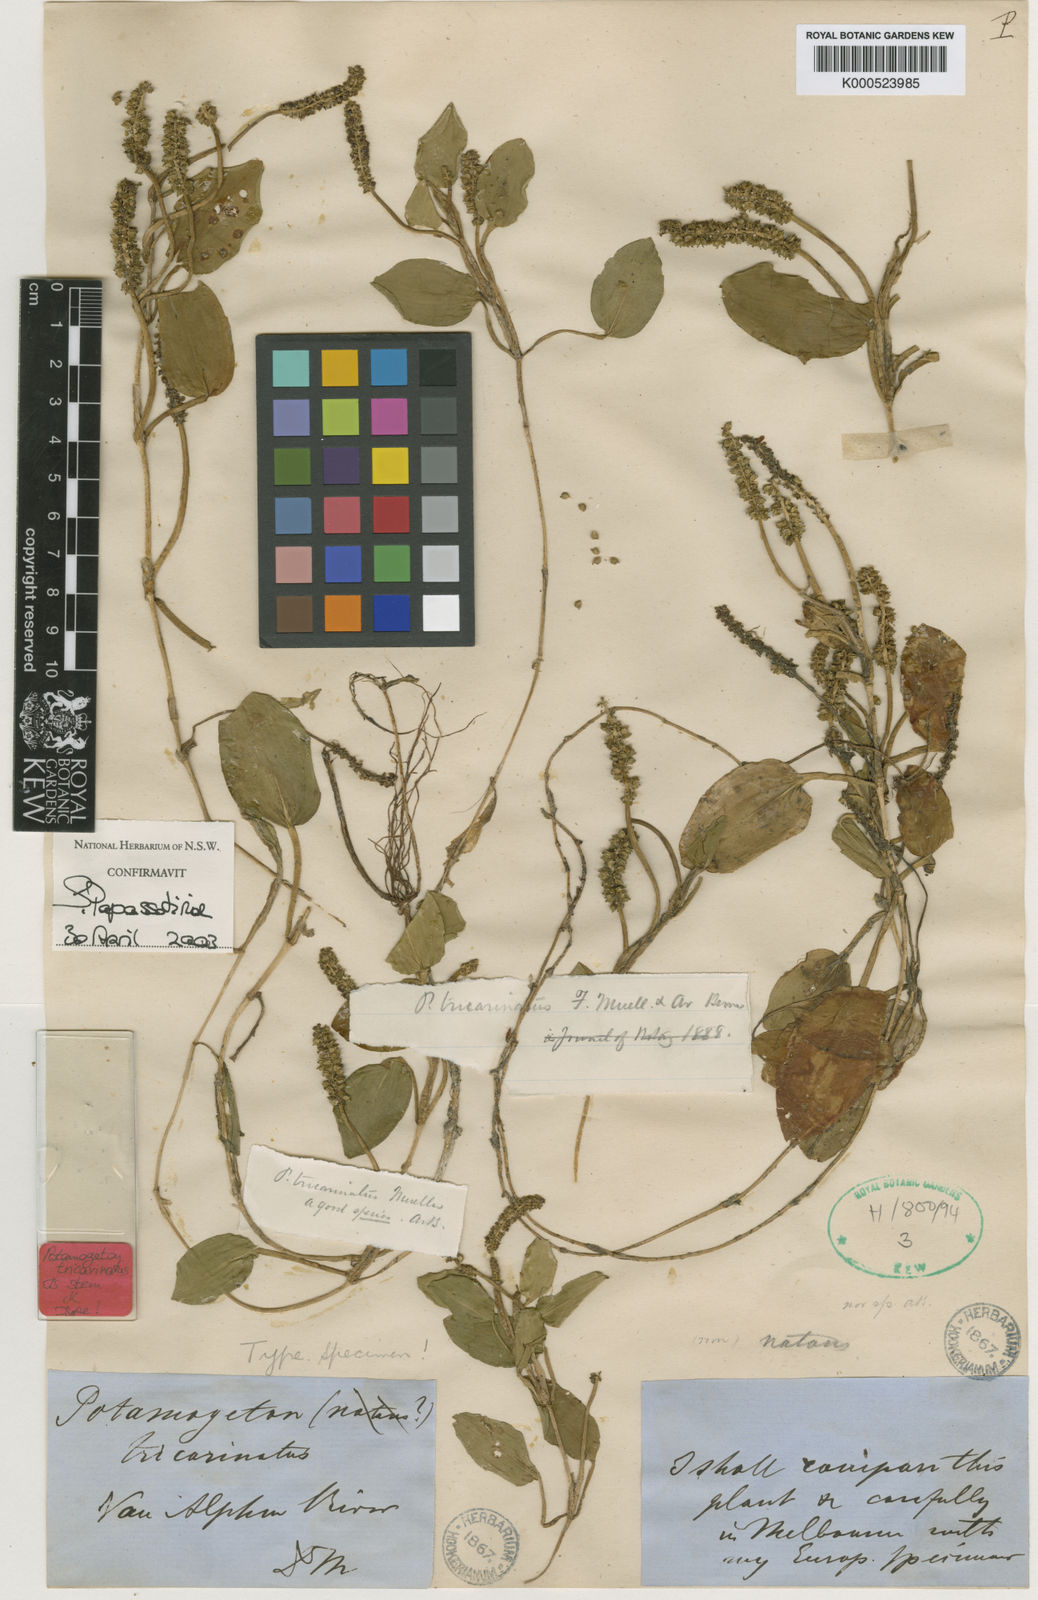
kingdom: Plantae
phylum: Tracheophyta
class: Liliopsida
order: Alismatales
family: Potamogetonaceae
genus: Potamogeton
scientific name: Potamogeton tricarinatus
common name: Pondweed
